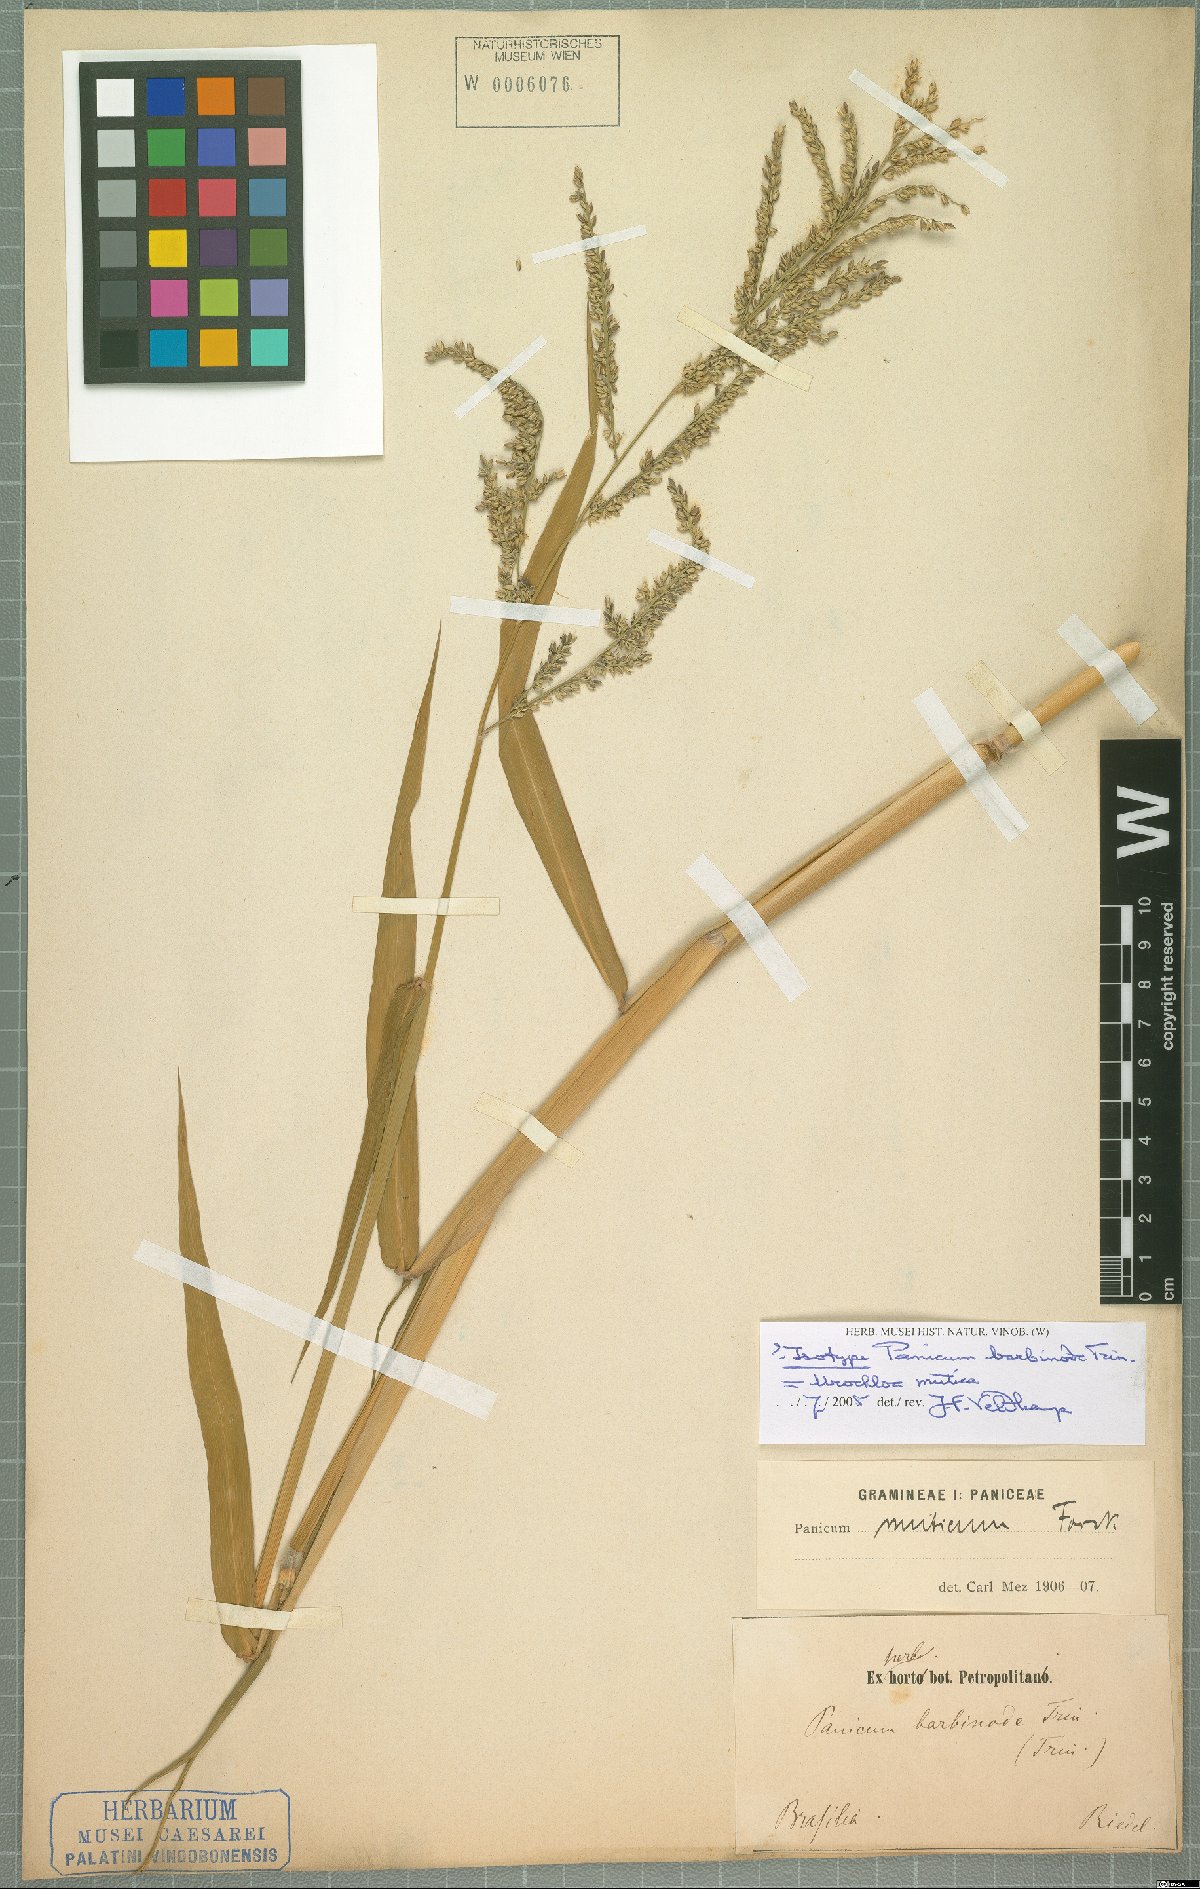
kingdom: Plantae
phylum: Tracheophyta
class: Liliopsida
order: Poales
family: Poaceae
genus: Urochloa
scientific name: Urochloa mutica
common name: Para grass
